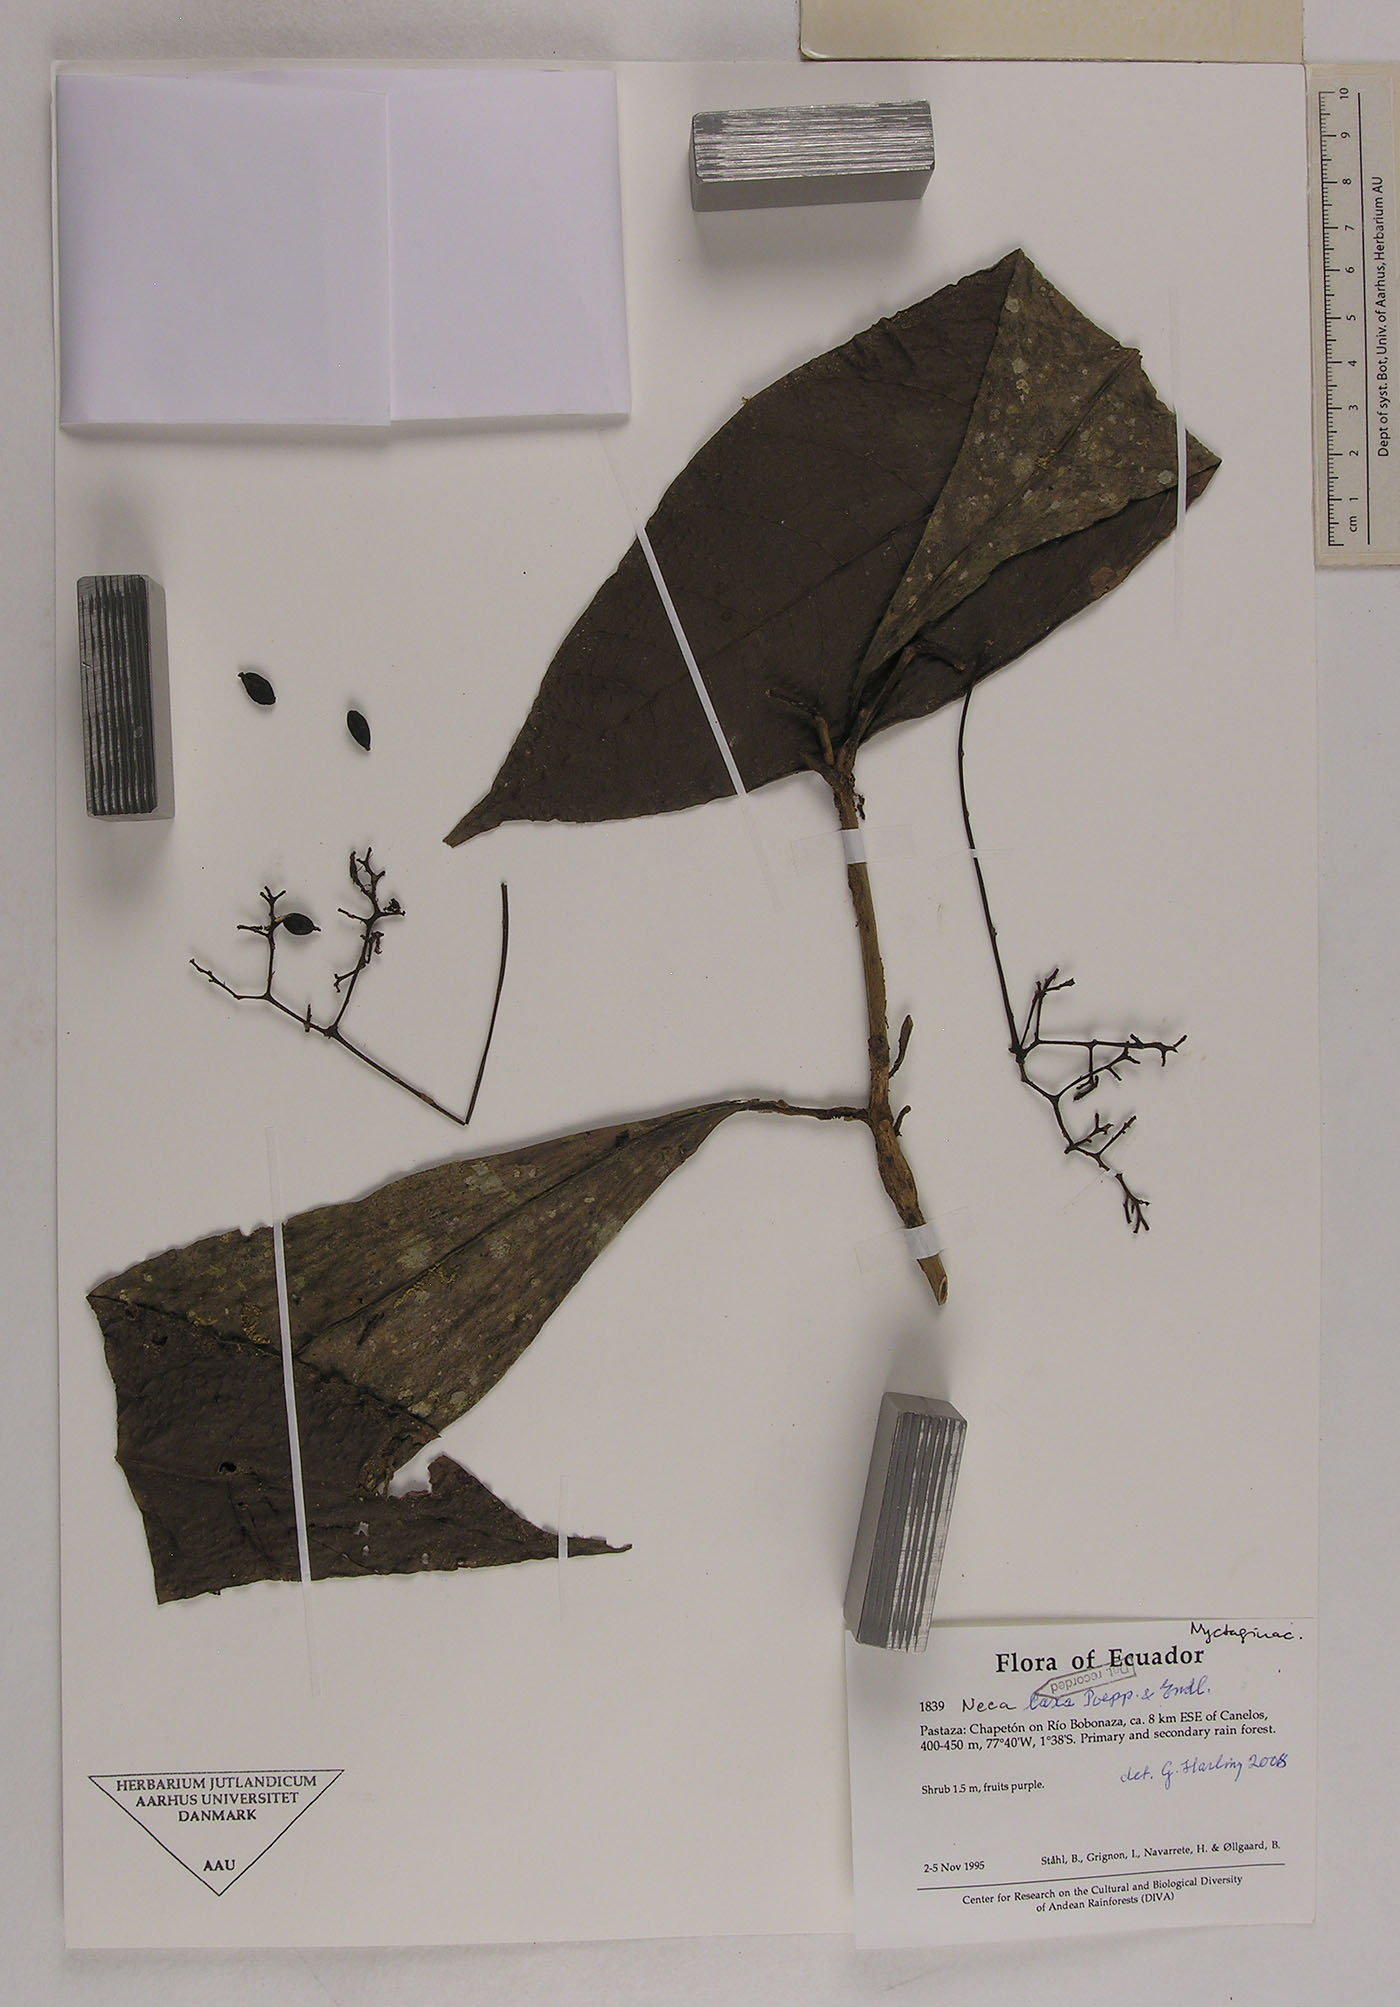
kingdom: Plantae
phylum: Tracheophyta
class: Magnoliopsida
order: Caryophyllales
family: Nyctaginaceae
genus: Neea
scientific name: Neea laxa
